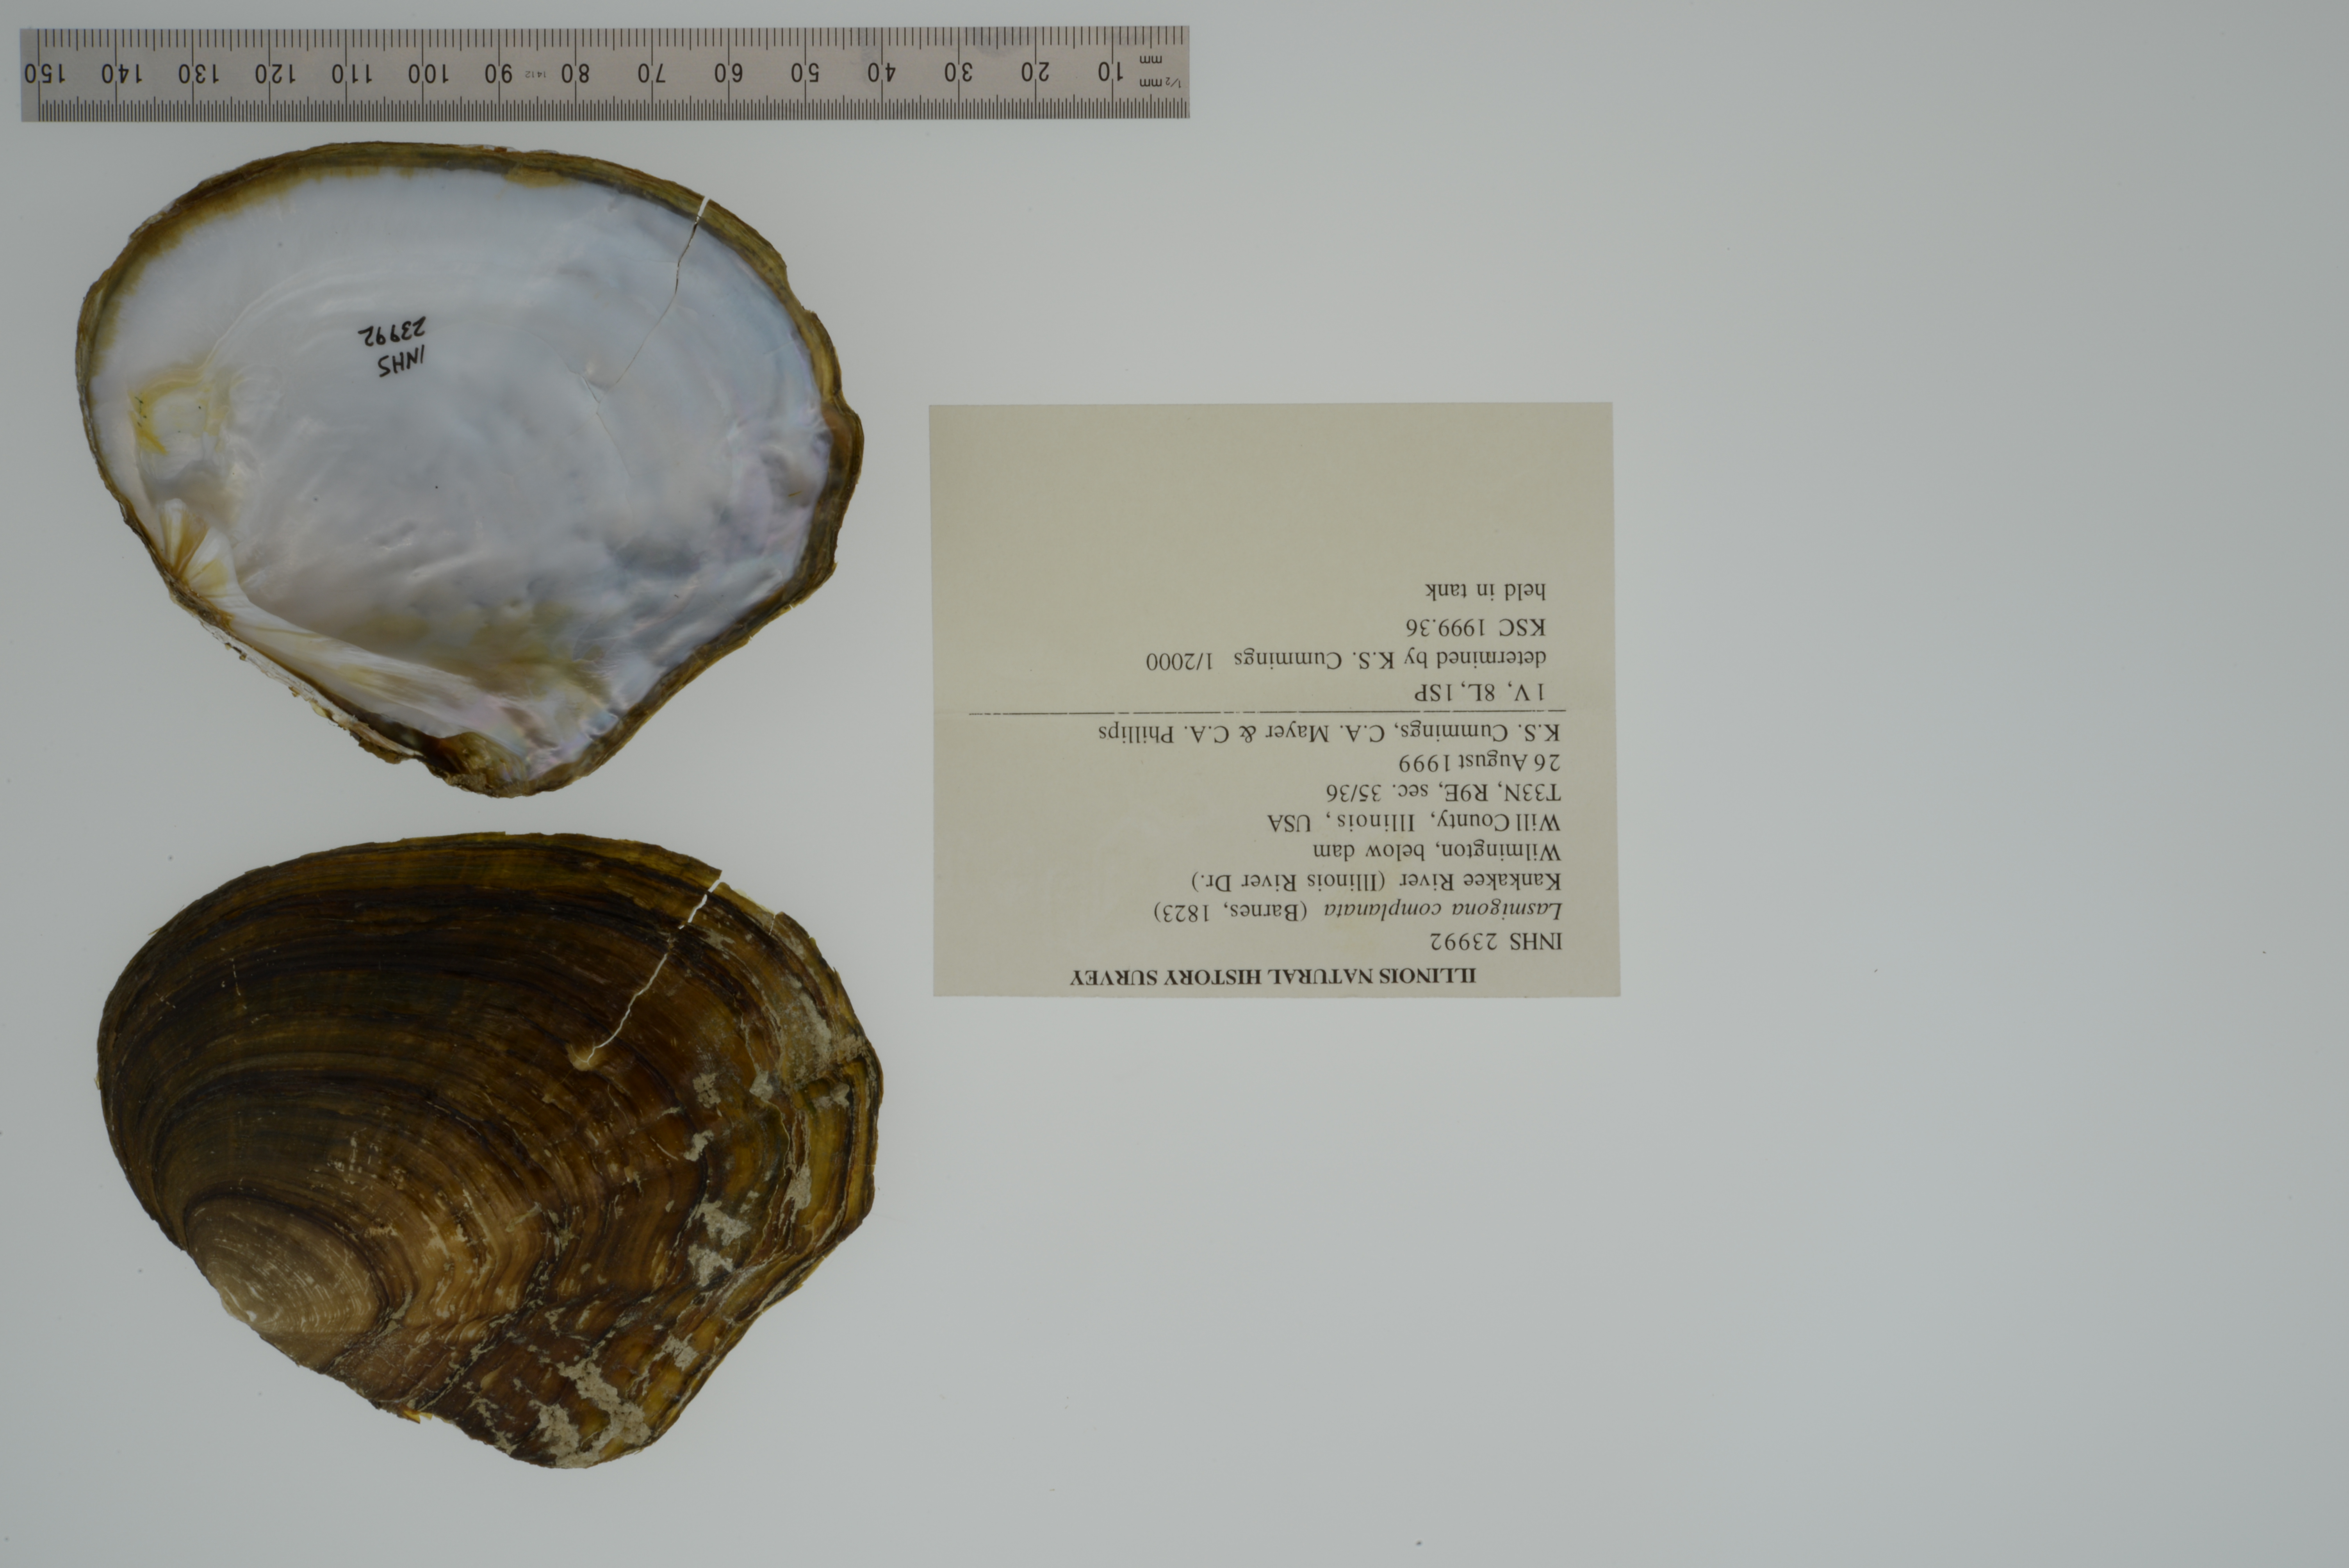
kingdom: Animalia
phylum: Mollusca
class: Bivalvia
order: Unionida
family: Unionidae
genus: Lasmigona
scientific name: Lasmigona complanata
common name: White heelsplitter
